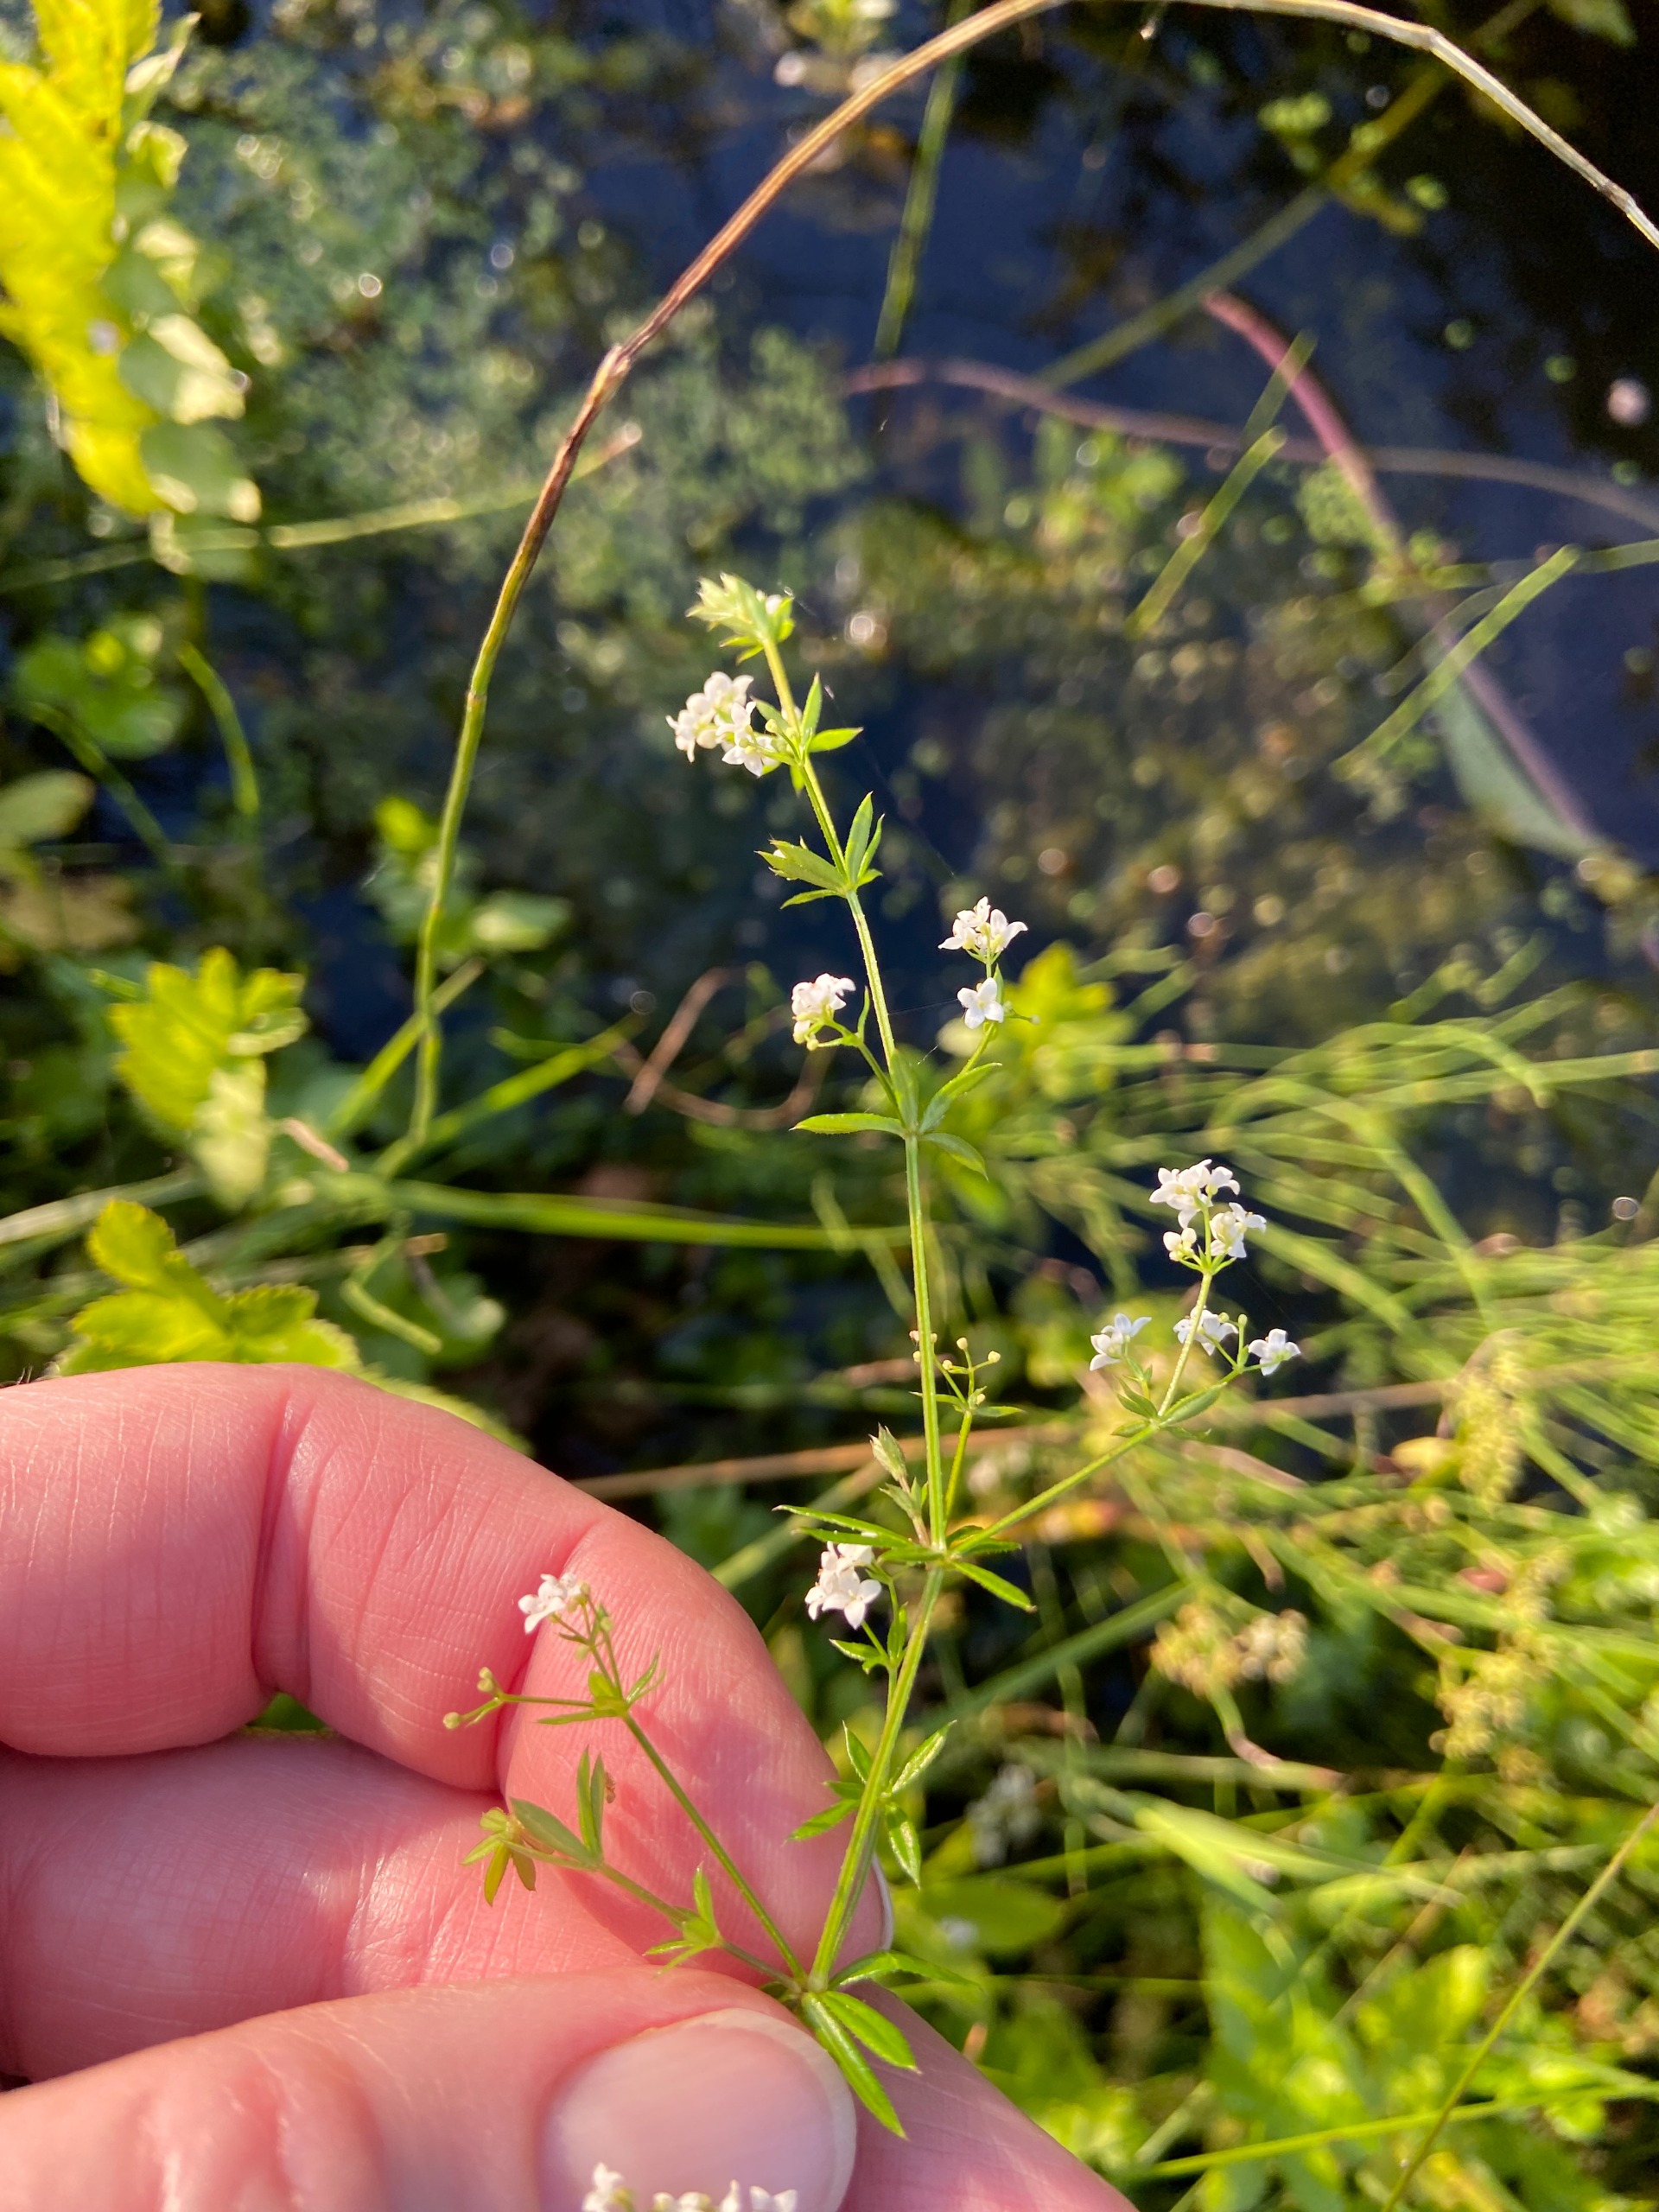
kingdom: Plantae
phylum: Tracheophyta
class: Magnoliopsida
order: Gentianales
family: Rubiaceae
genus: Galium
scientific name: Galium uliginosum
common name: Sump-snerre
